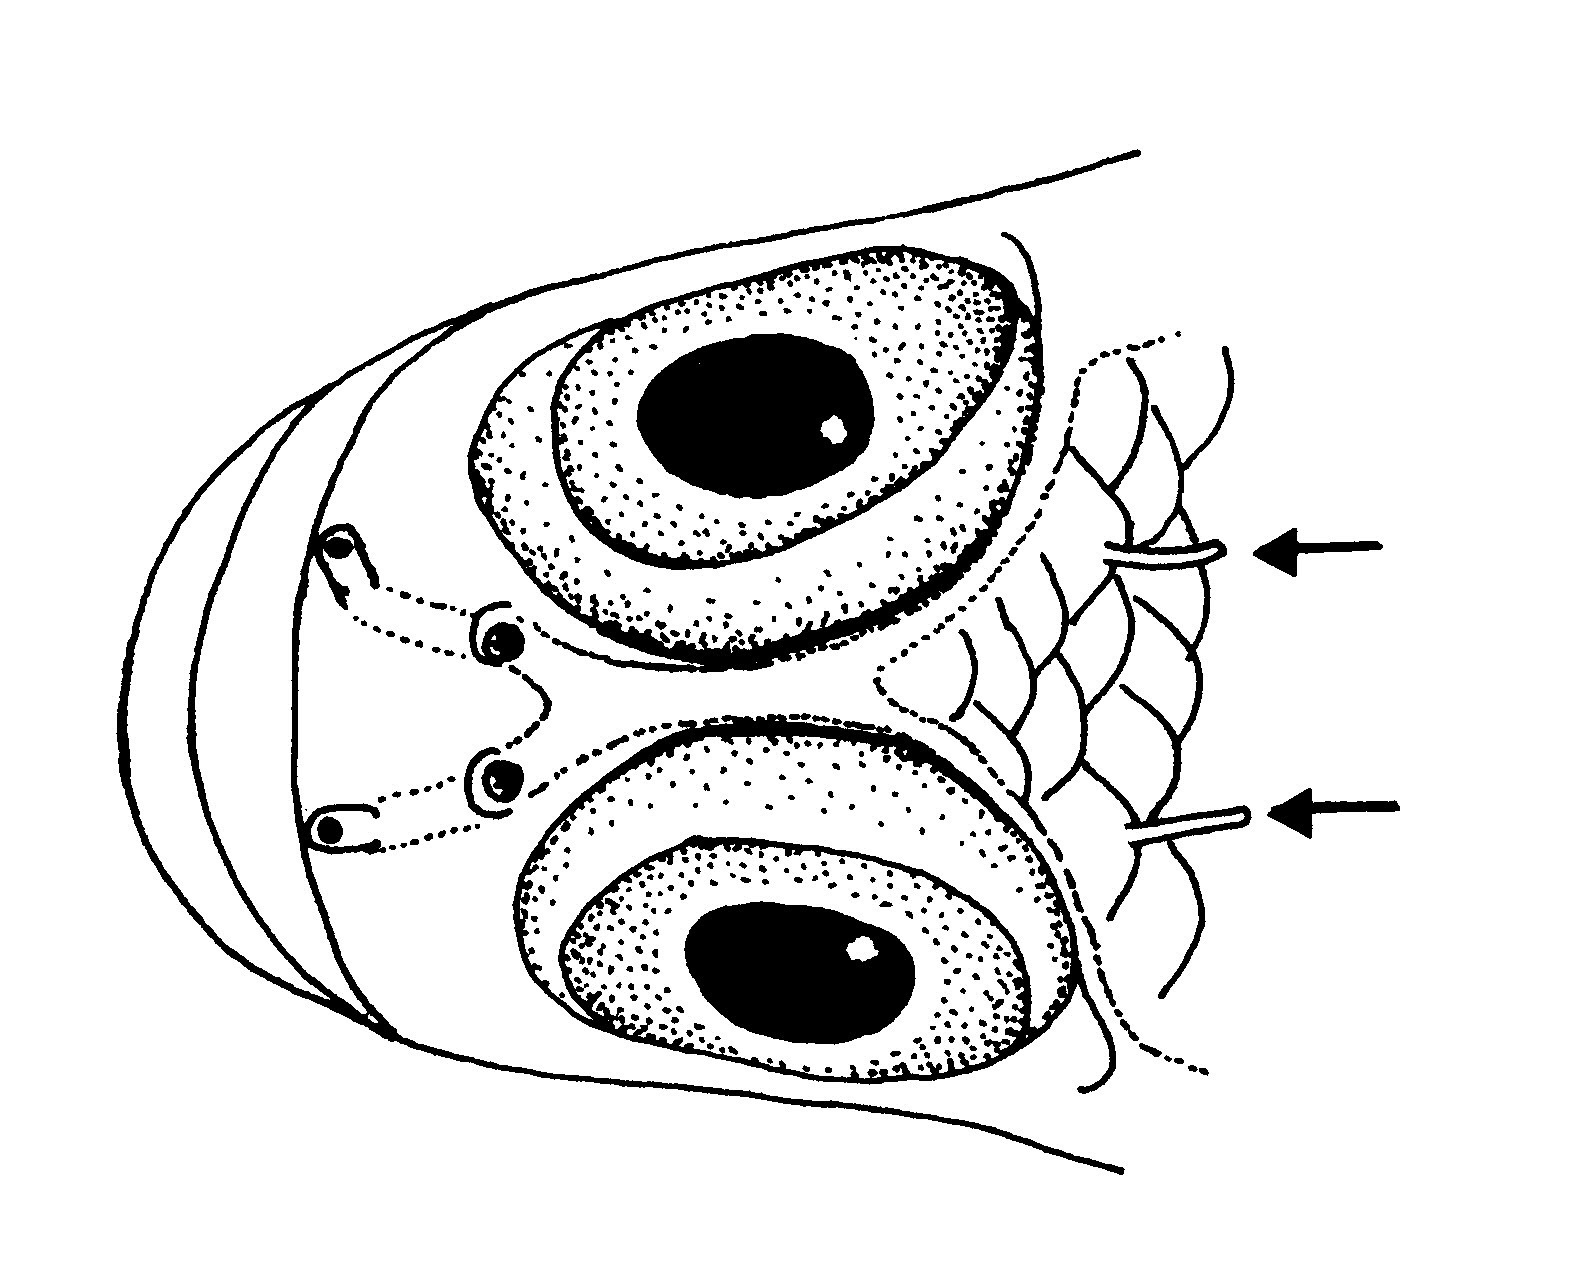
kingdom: Animalia
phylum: Chordata
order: Perciformes
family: Gobiidae
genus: Trimma
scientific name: Trimma mendelssohni
